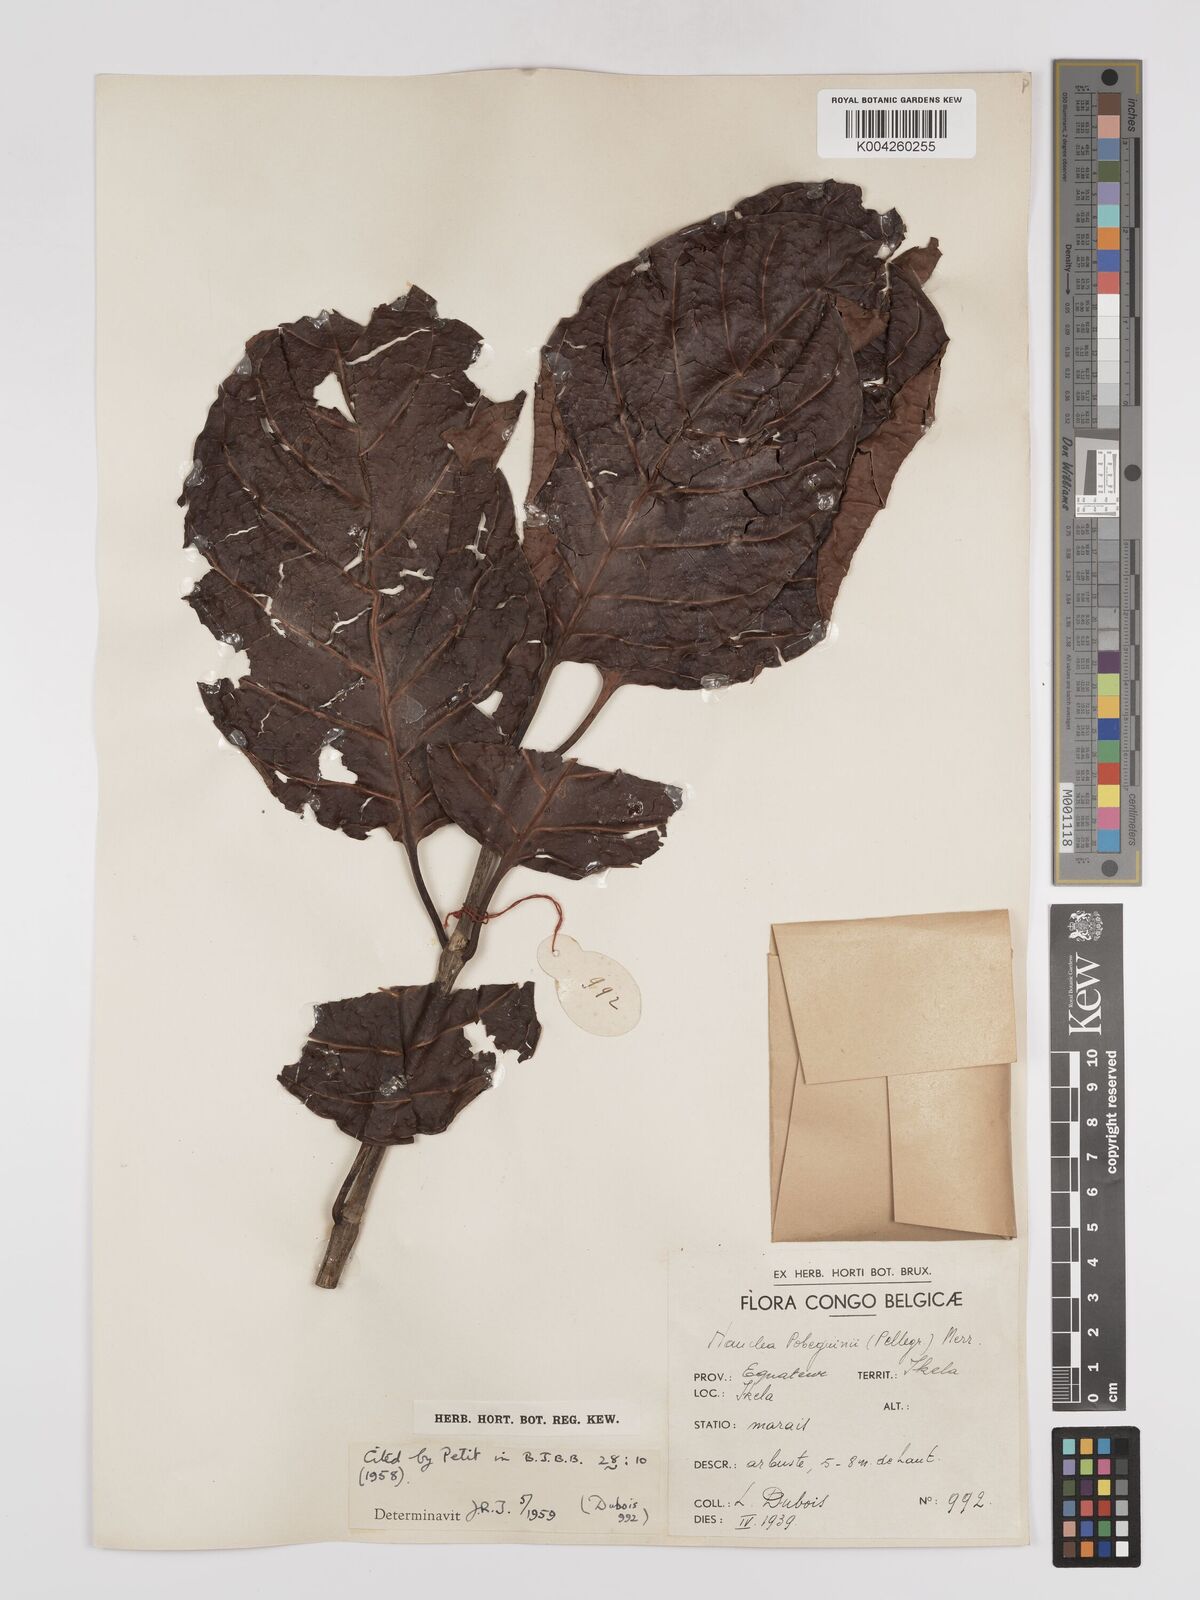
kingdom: Plantae
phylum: Tracheophyta
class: Magnoliopsida
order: Gentianales
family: Rubiaceae
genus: Nauclea
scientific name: Nauclea pobeguinii
